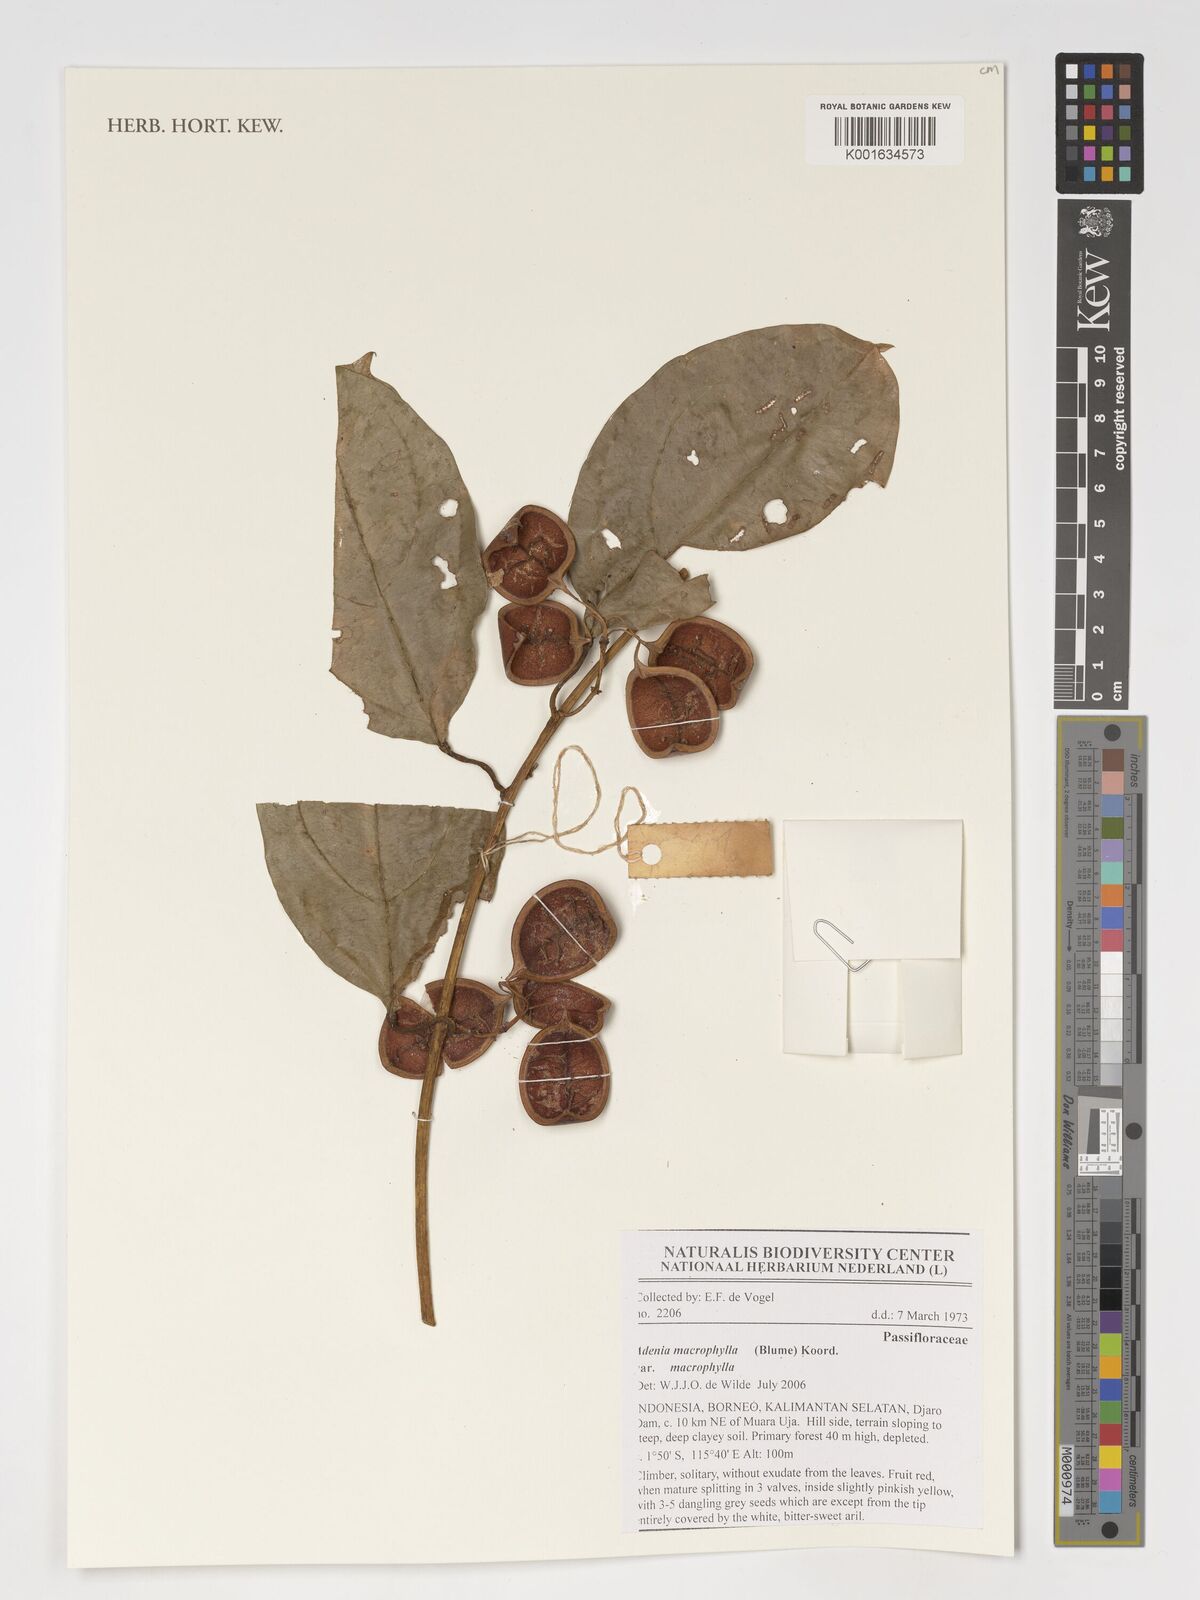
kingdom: Plantae
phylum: Tracheophyta
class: Magnoliopsida
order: Malpighiales
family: Passifloraceae
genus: Adenia
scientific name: Adenia macrophylla
